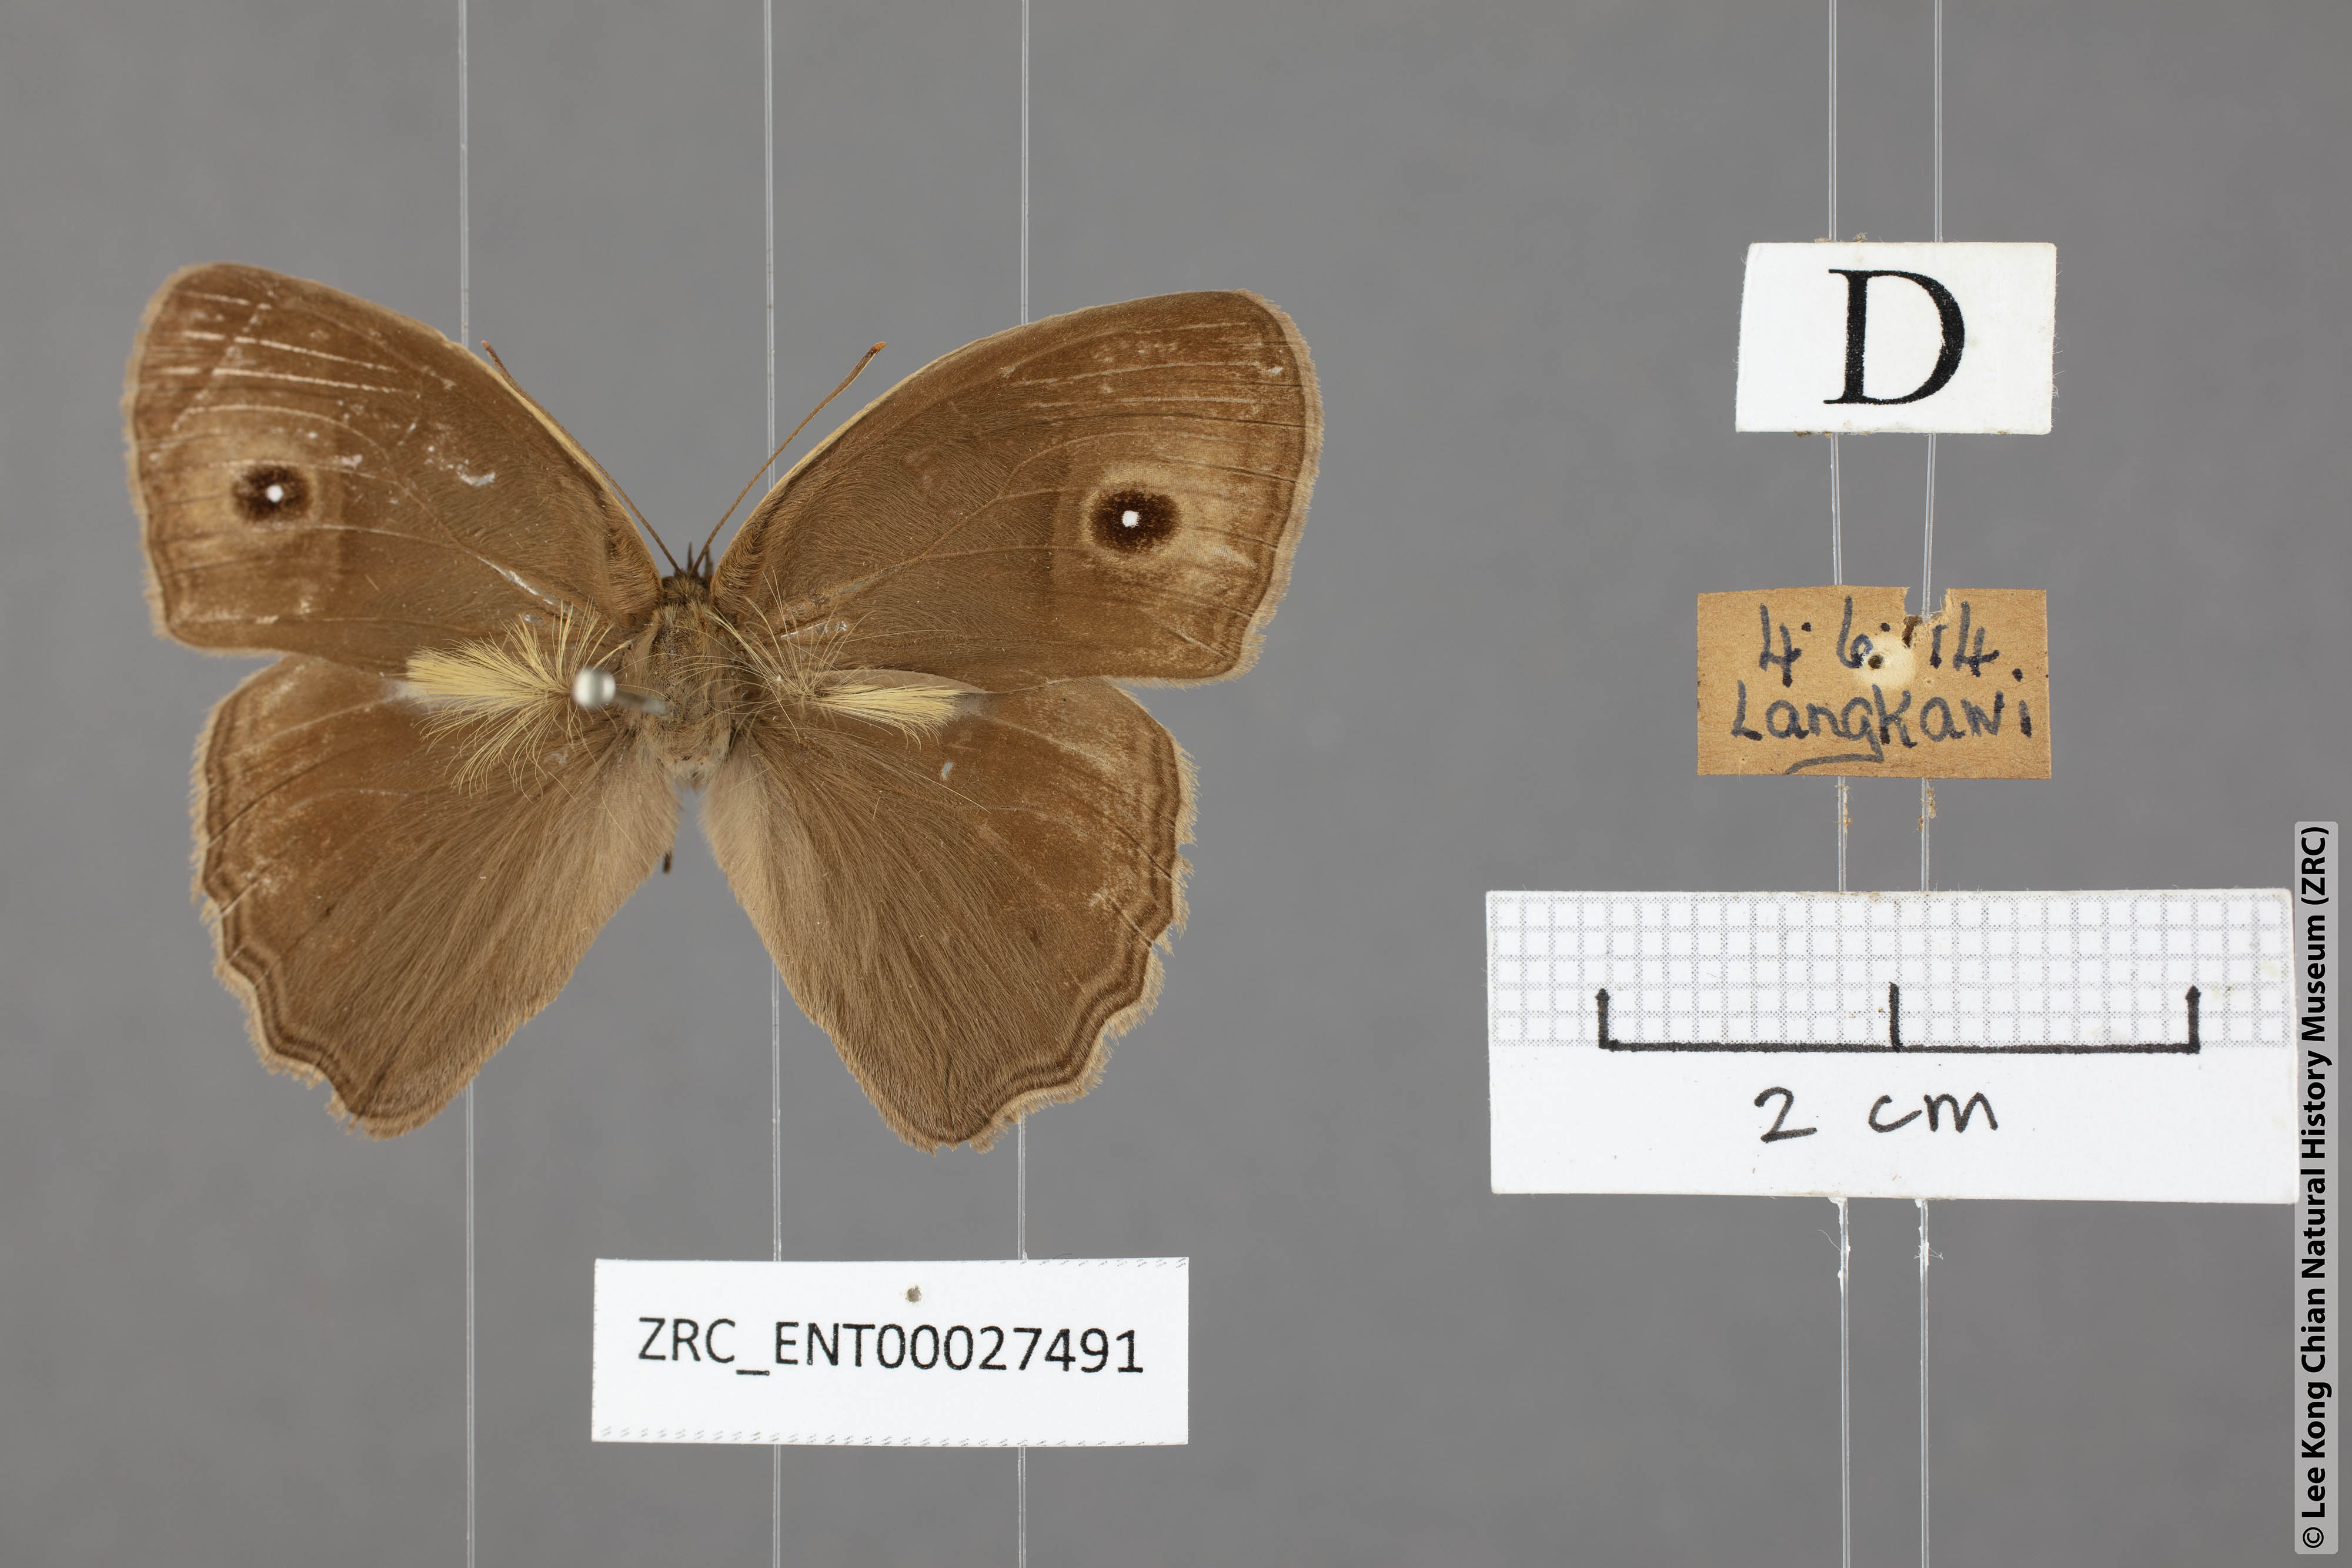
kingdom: Animalia
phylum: Arthropoda
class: Insecta
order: Lepidoptera
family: Nymphalidae
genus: Mycalesis
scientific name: Mycalesis horsfieldii
